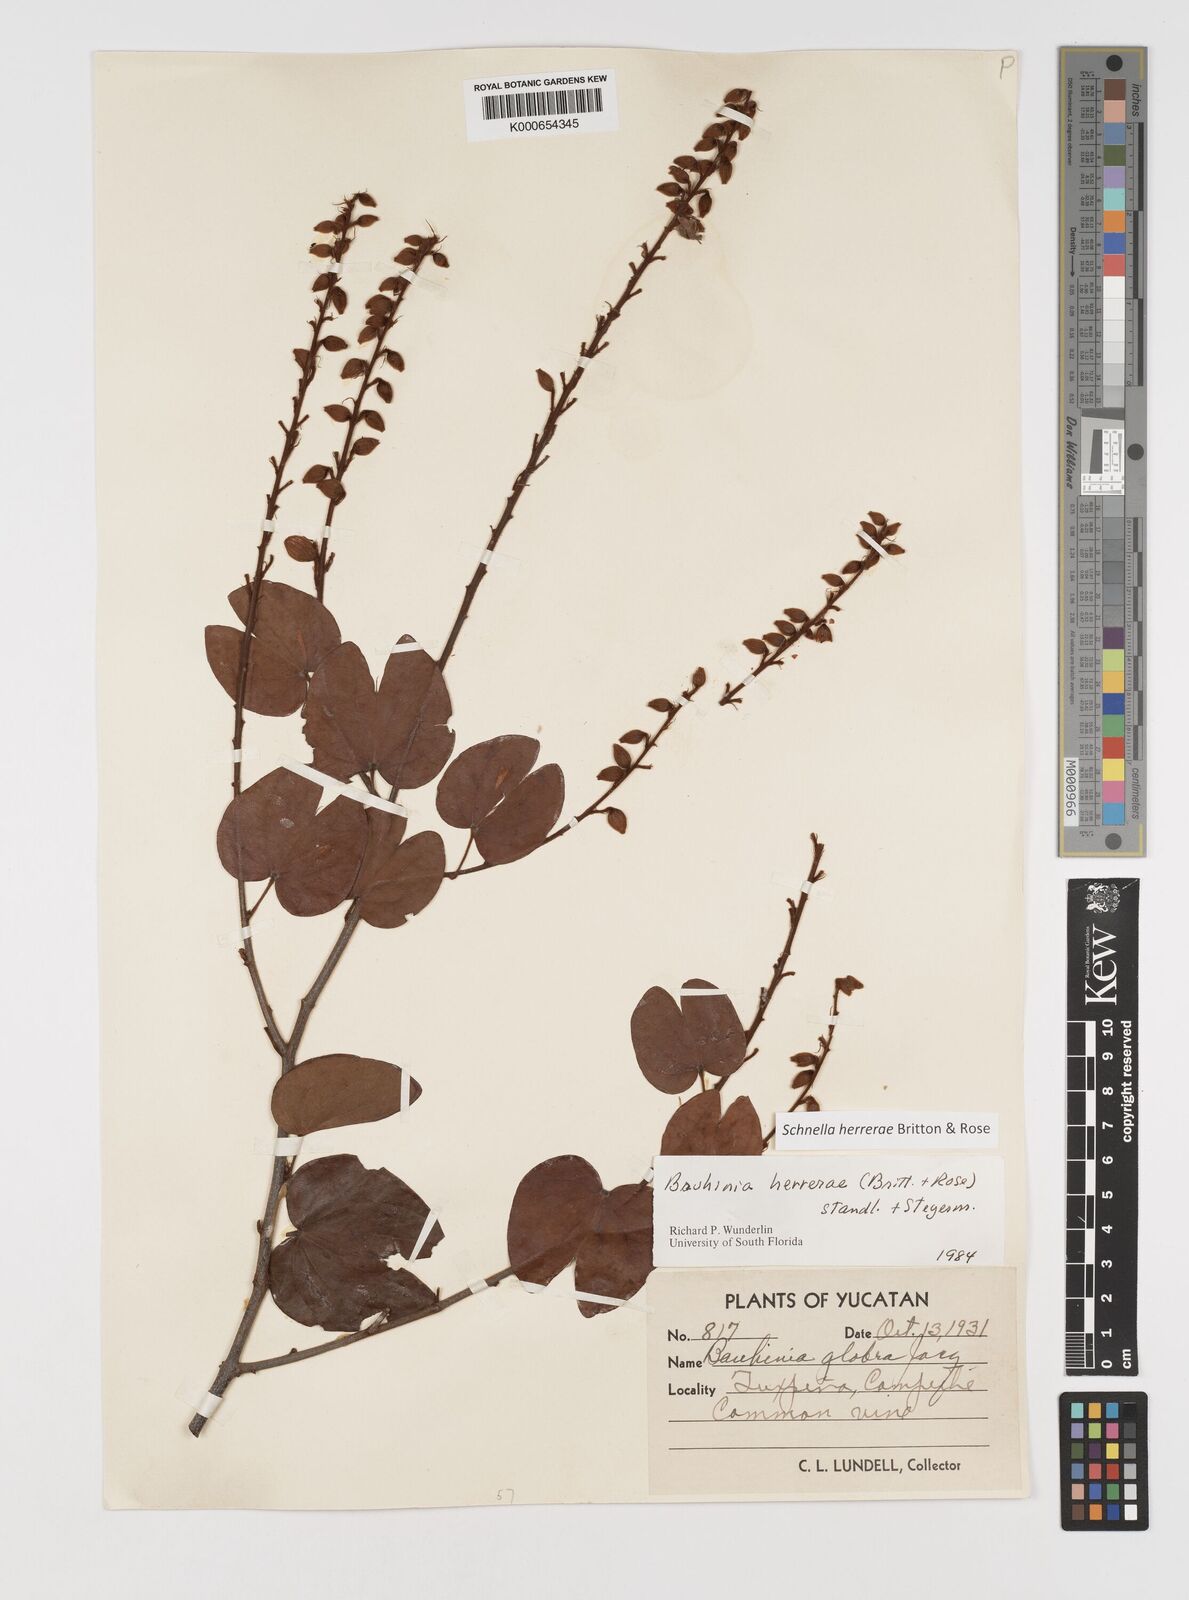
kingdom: Plantae
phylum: Tracheophyta
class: Magnoliopsida
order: Fabales
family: Fabaceae
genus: Schnella
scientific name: Schnella herrerae
